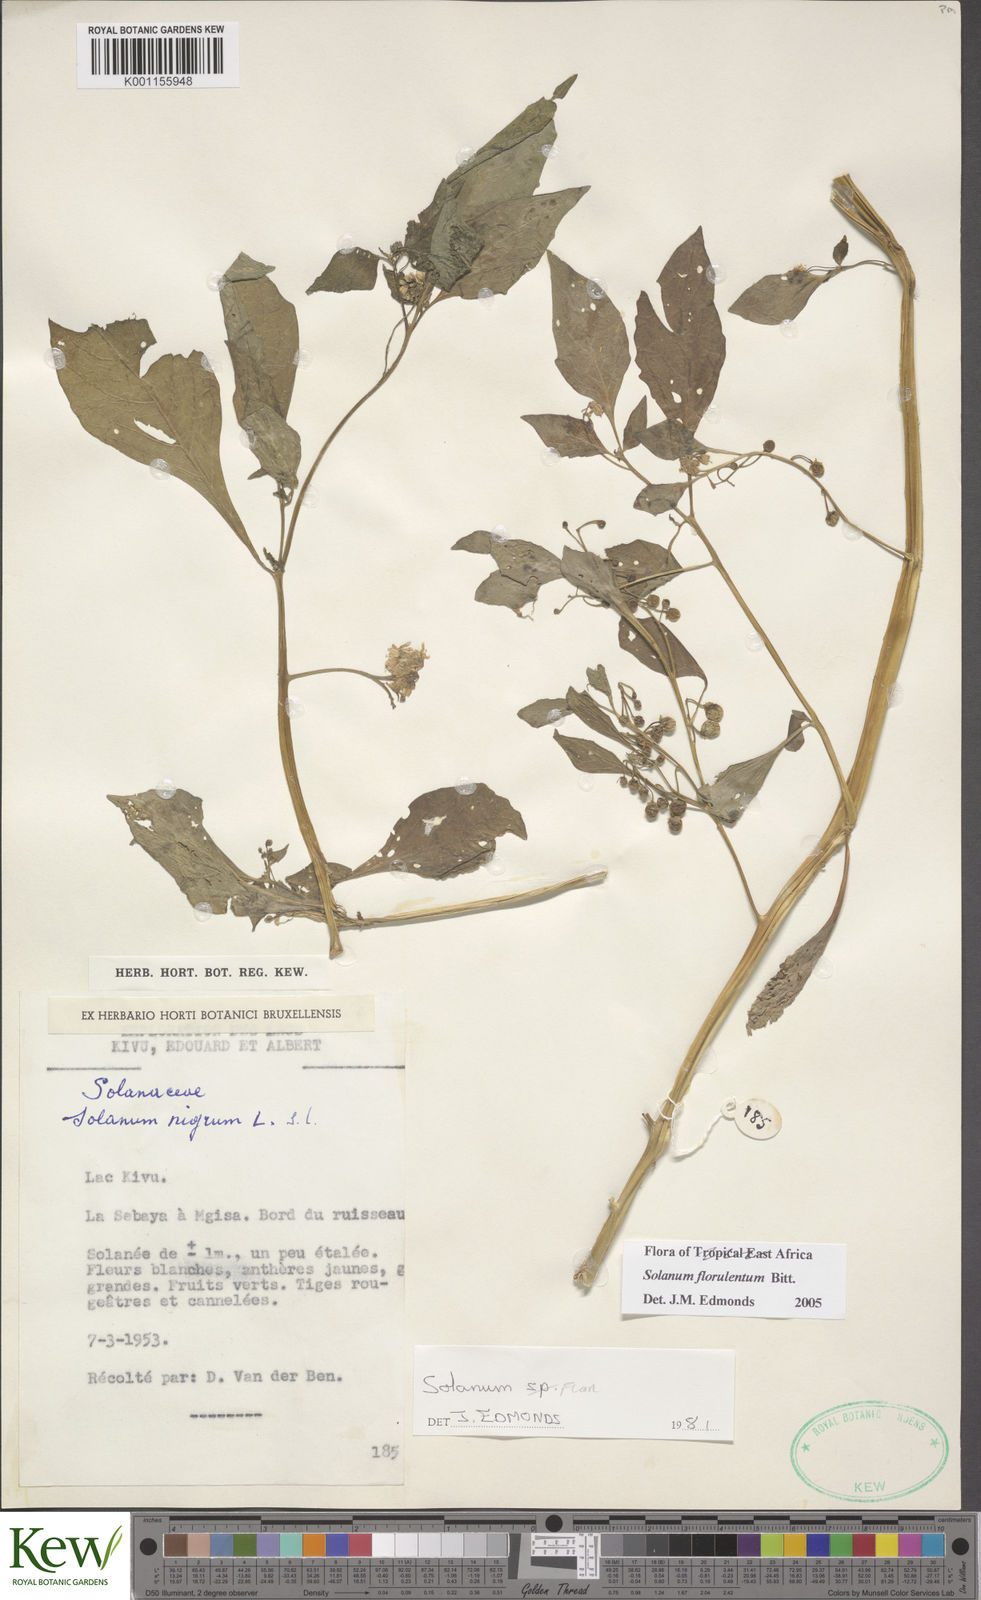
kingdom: Plantae
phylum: Tracheophyta
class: Magnoliopsida
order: Solanales
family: Solanaceae
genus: Solanum
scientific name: Solanum tarderemotum
